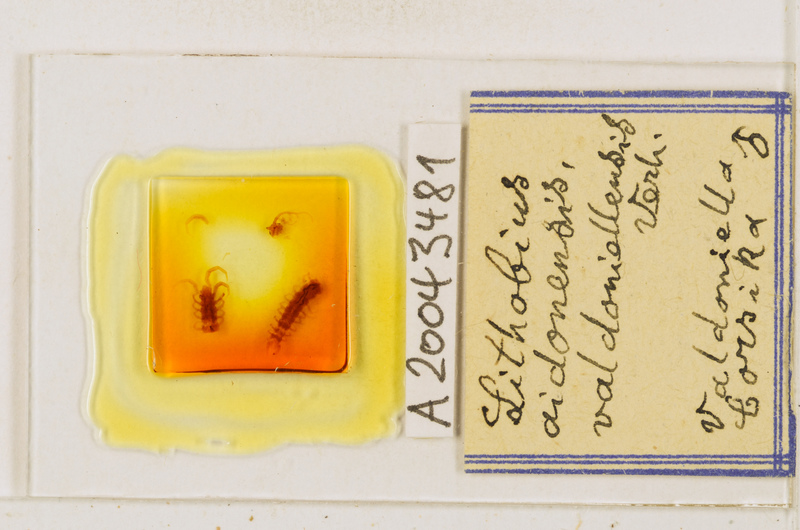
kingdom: Animalia
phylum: Arthropoda
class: Chilopoda
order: Lithobiomorpha
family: Lithobiidae
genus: Lithobius
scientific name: Lithobius acuminatus
